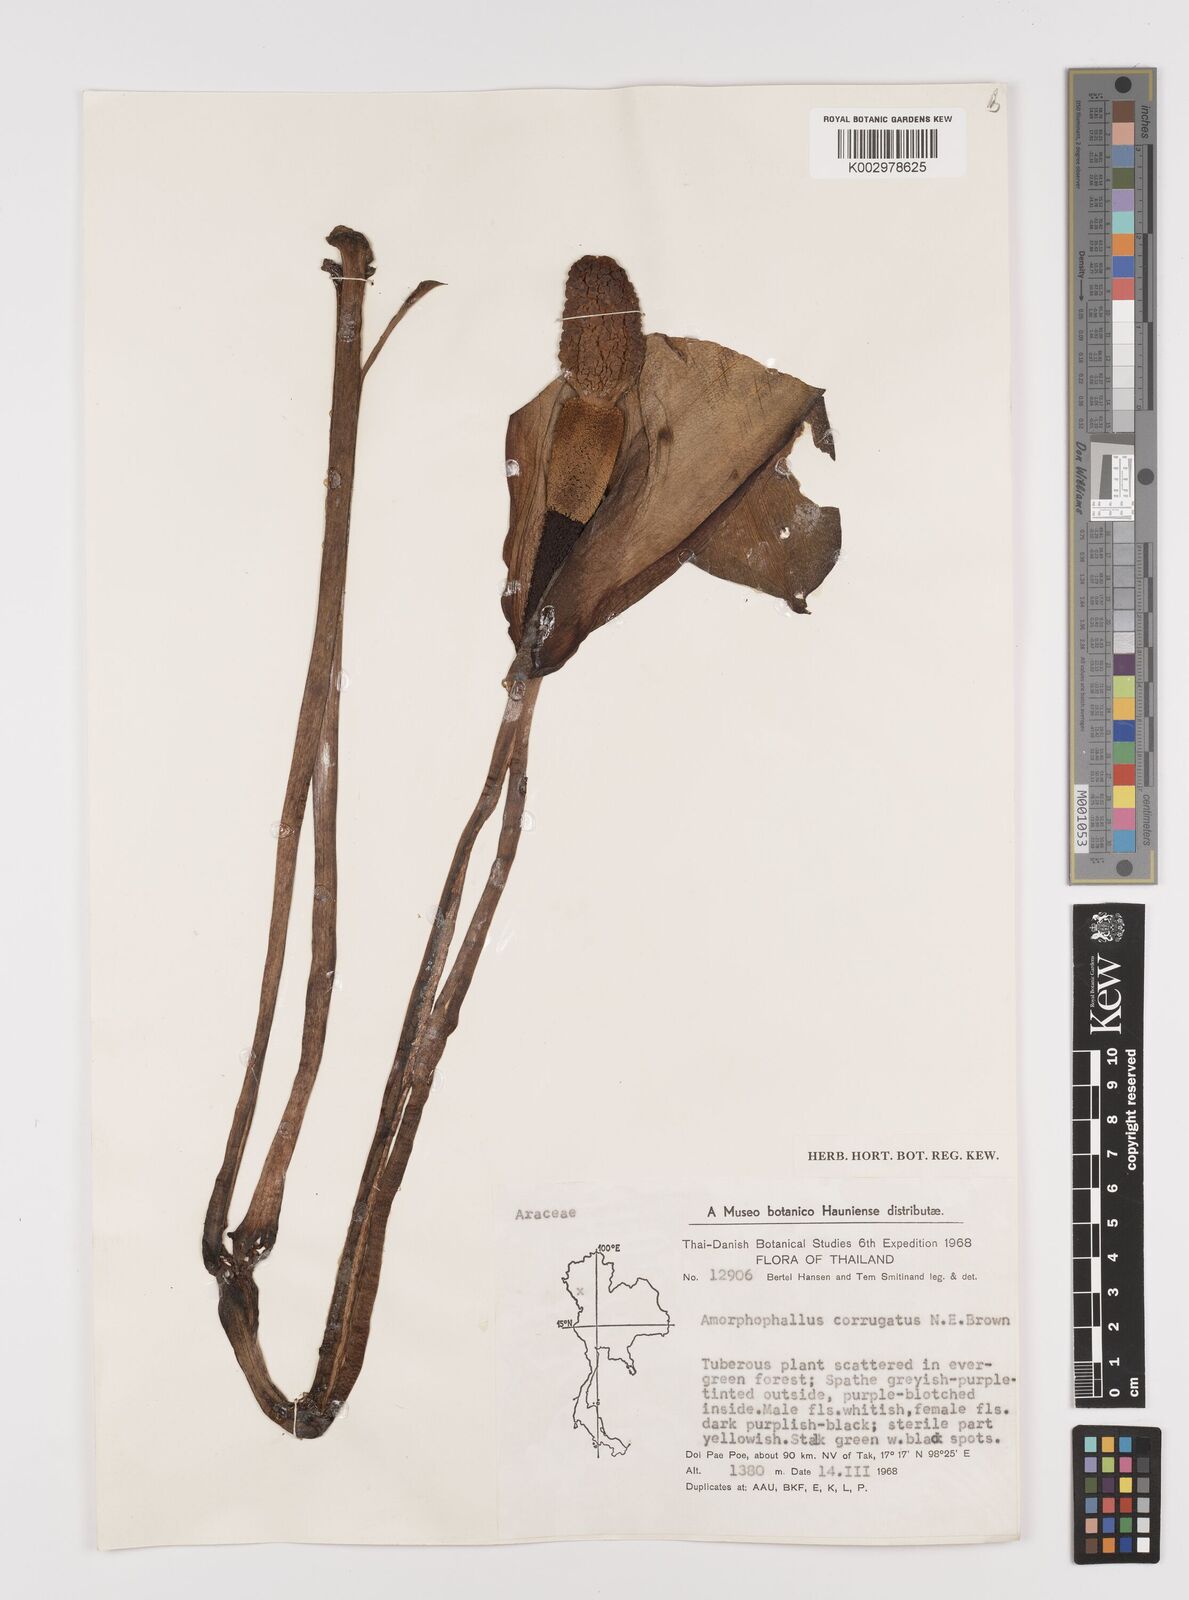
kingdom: Plantae
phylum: Tracheophyta
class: Liliopsida
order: Alismatales
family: Araceae
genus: Amorphophallus
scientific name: Amorphophallus corrugatus
